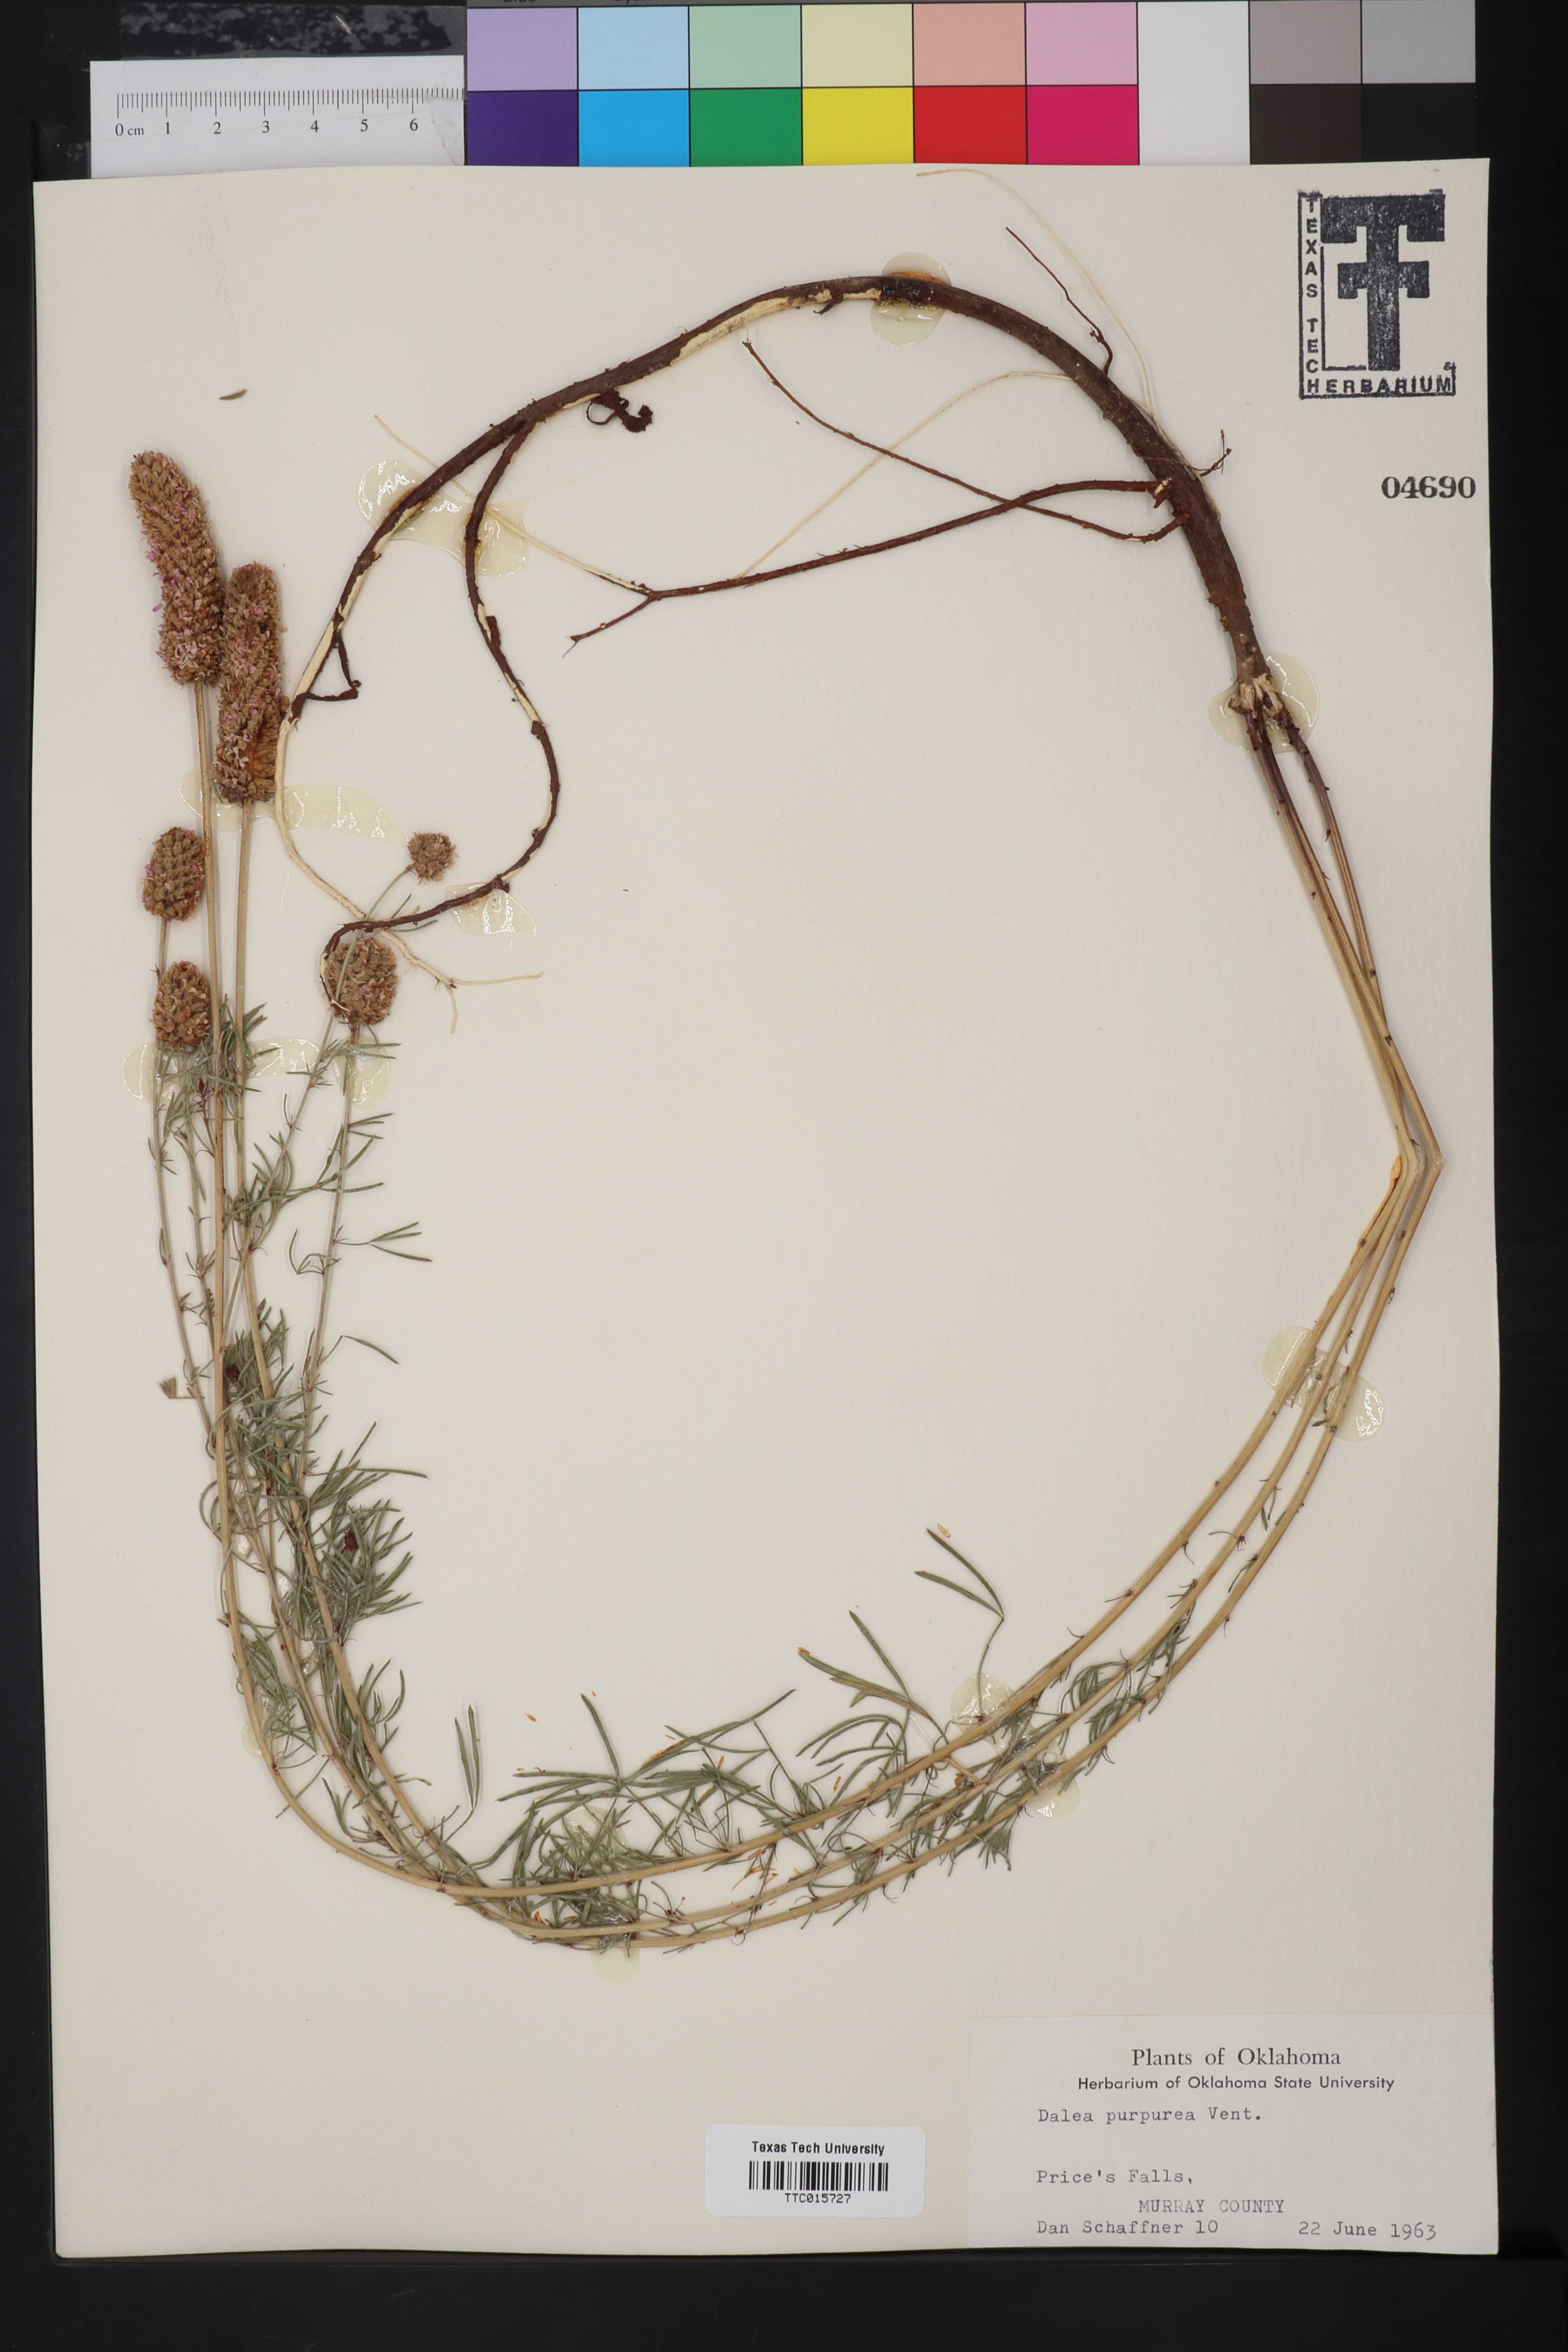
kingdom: Plantae
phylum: Tracheophyta
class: Magnoliopsida
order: Fabales
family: Fabaceae
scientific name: Fabaceae
